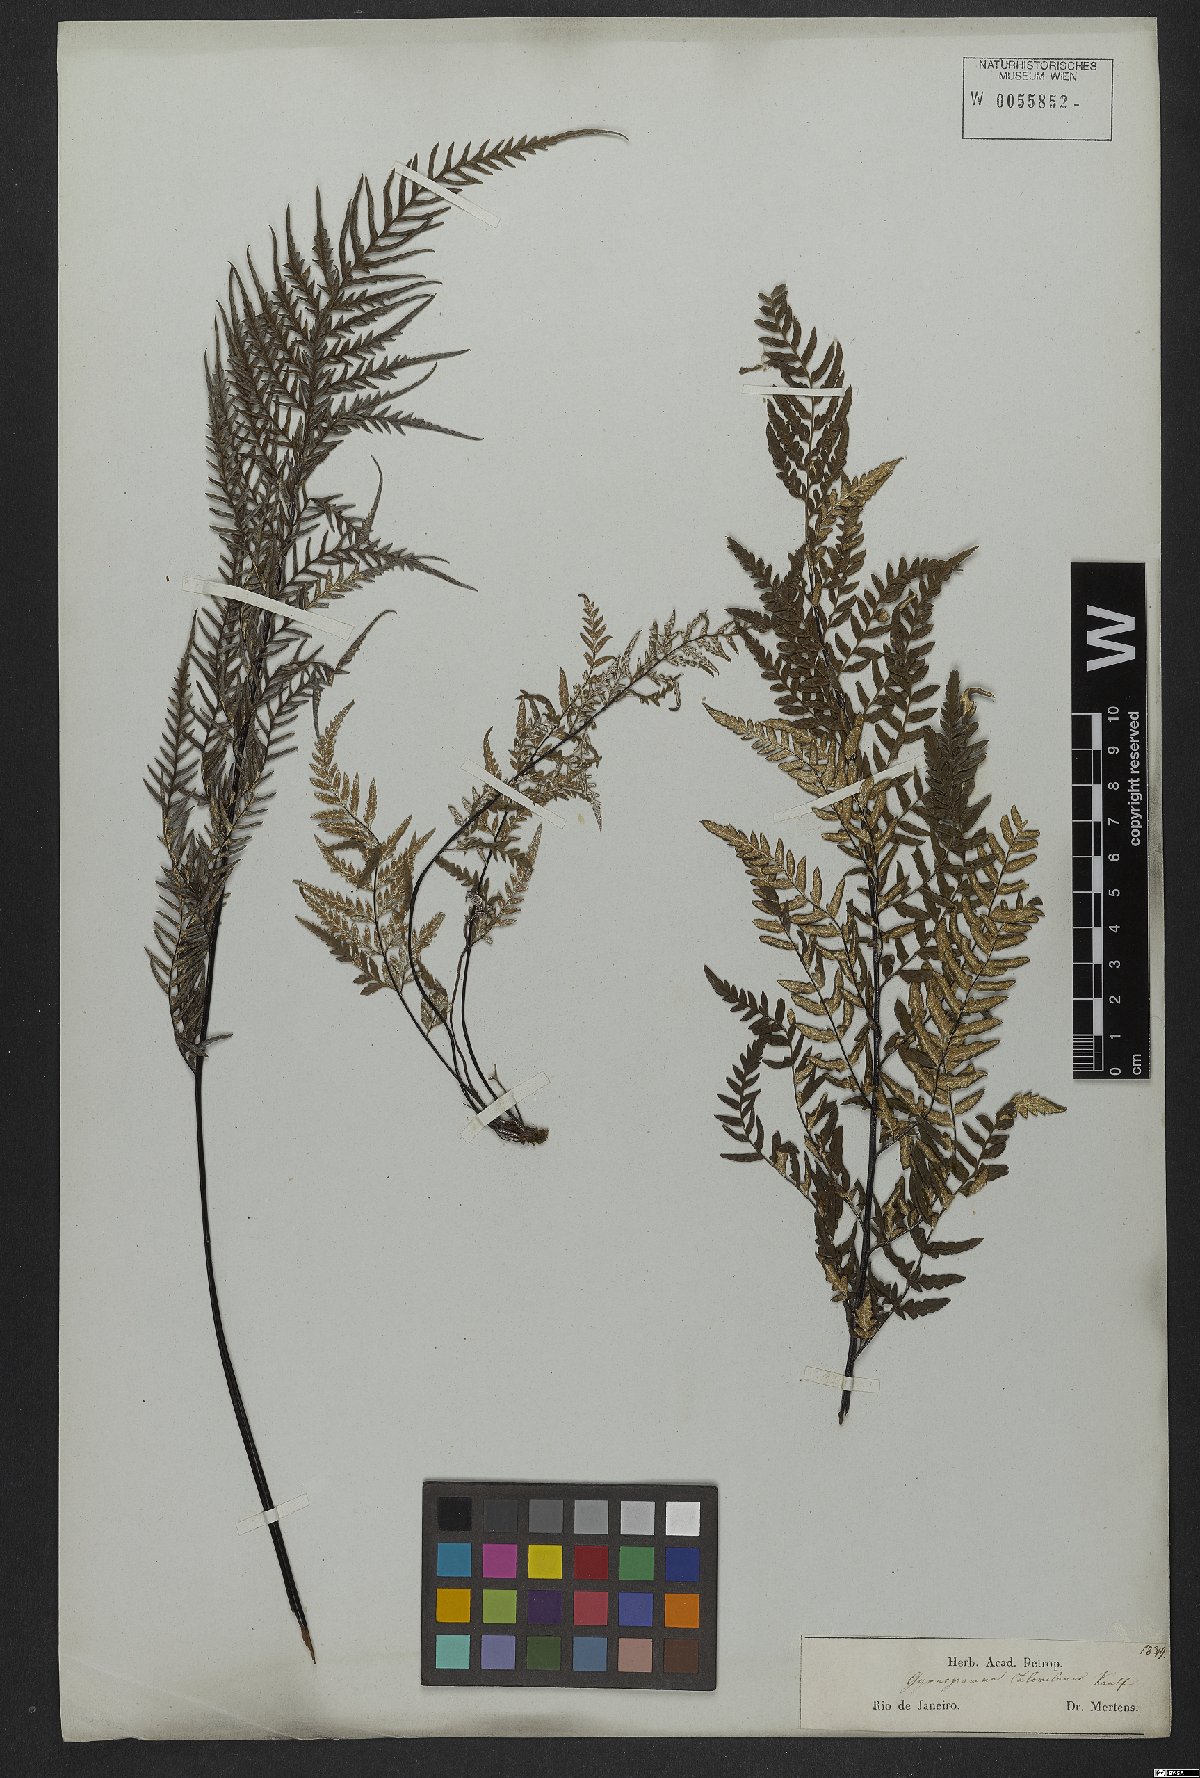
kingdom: Plantae
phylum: Tracheophyta
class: Polypodiopsida
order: Polypodiales
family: Pteridaceae
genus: Pityrogramma
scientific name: Pityrogramma calomelanos
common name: Dixie silverback fern
